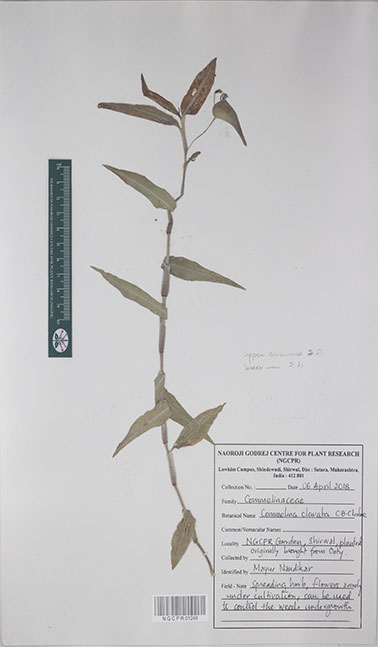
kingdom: Plantae
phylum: Tracheophyta
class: Liliopsida
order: Commelinales
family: Commelinaceae
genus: Commelina
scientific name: Commelina clavata
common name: Willow leaved dayflower
